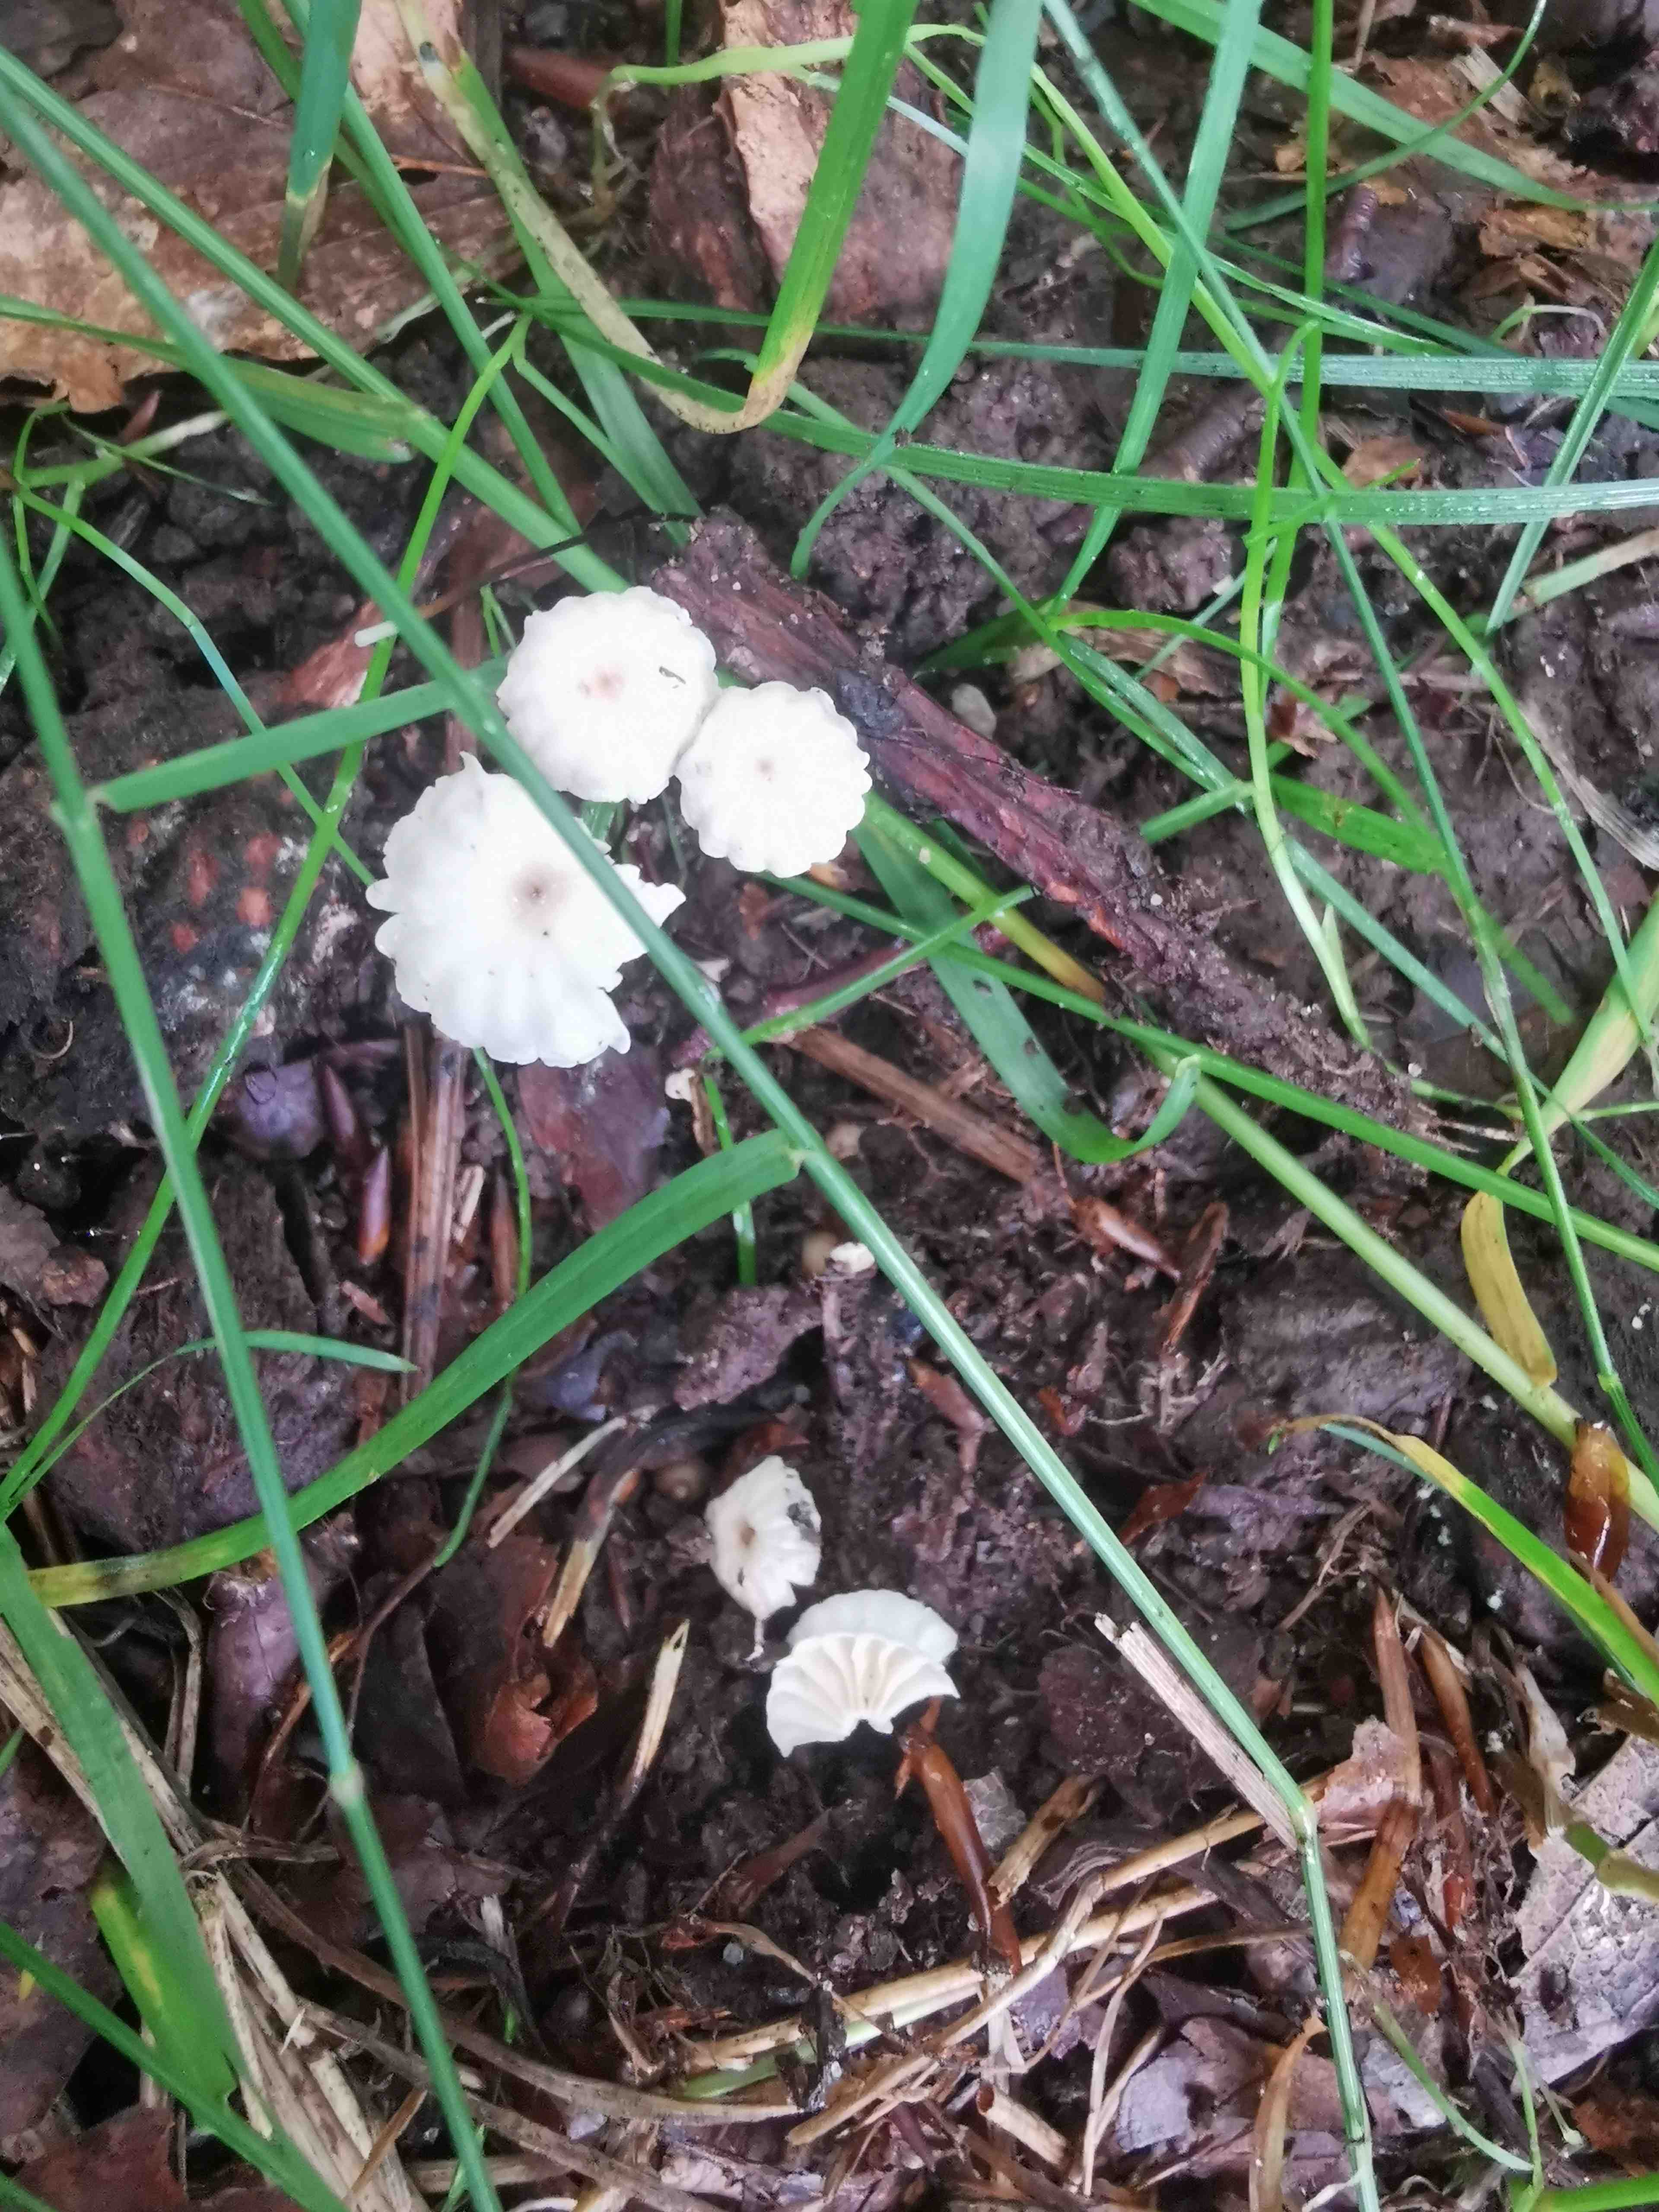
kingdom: Fungi
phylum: Basidiomycota
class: Agaricomycetes
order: Agaricales
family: Marasmiaceae
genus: Marasmius
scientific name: Marasmius rotula
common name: hjul-bruskhat
